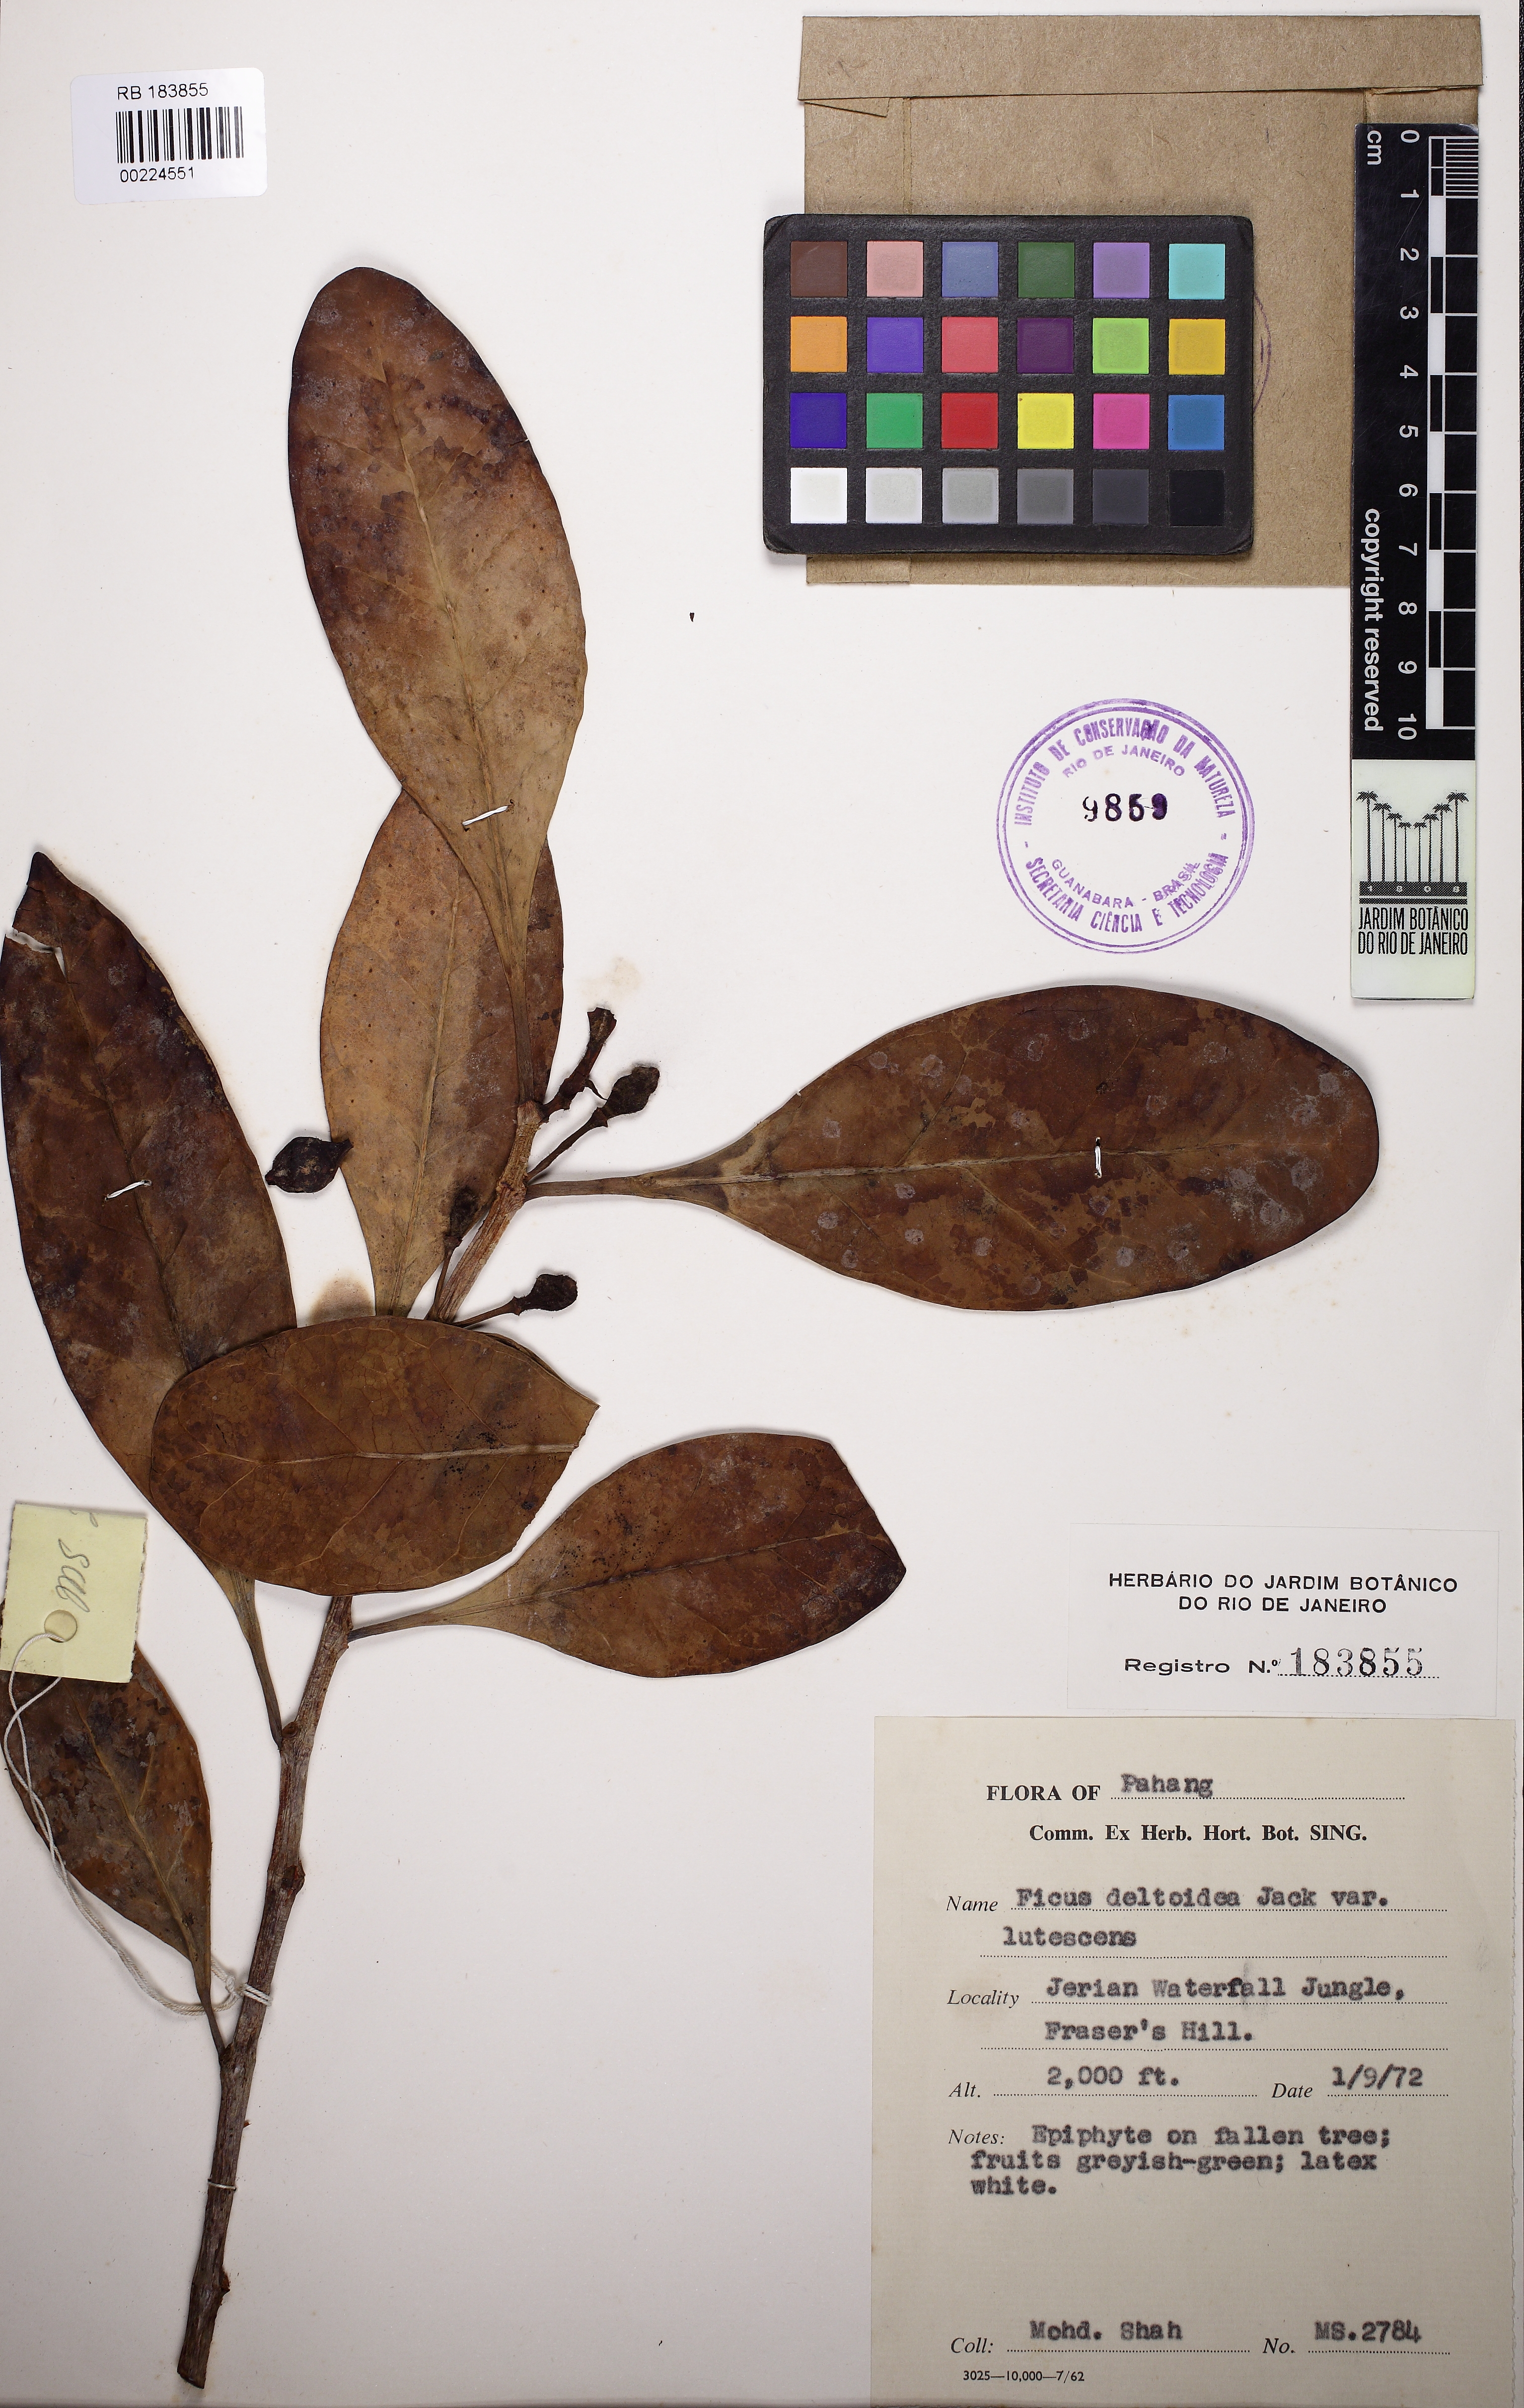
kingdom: Plantae
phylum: Tracheophyta
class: Magnoliopsida
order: Rosales
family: Moraceae
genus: Ficus
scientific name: Ficus deltoidea
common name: Mistletoe fig
